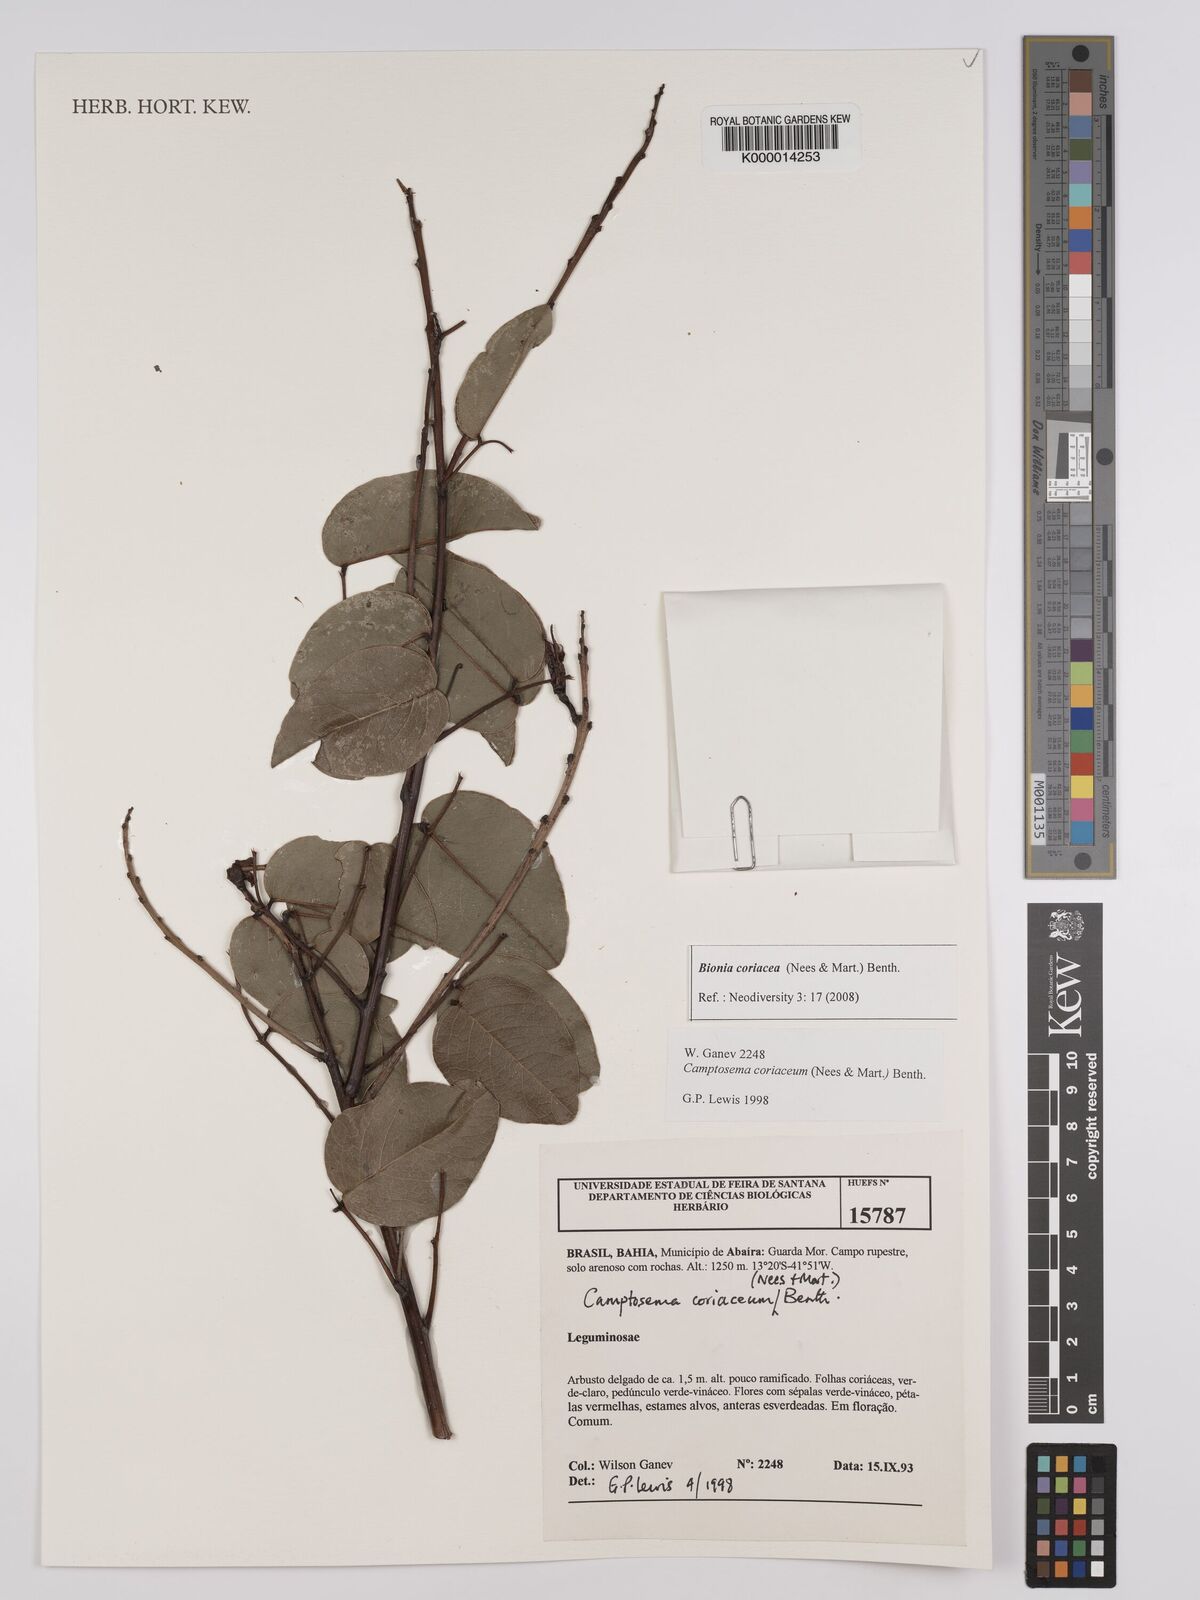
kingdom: Plantae
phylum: Tracheophyta
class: Magnoliopsida
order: Fabales
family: Fabaceae
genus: Camptosema
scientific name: Camptosema coriaceum
